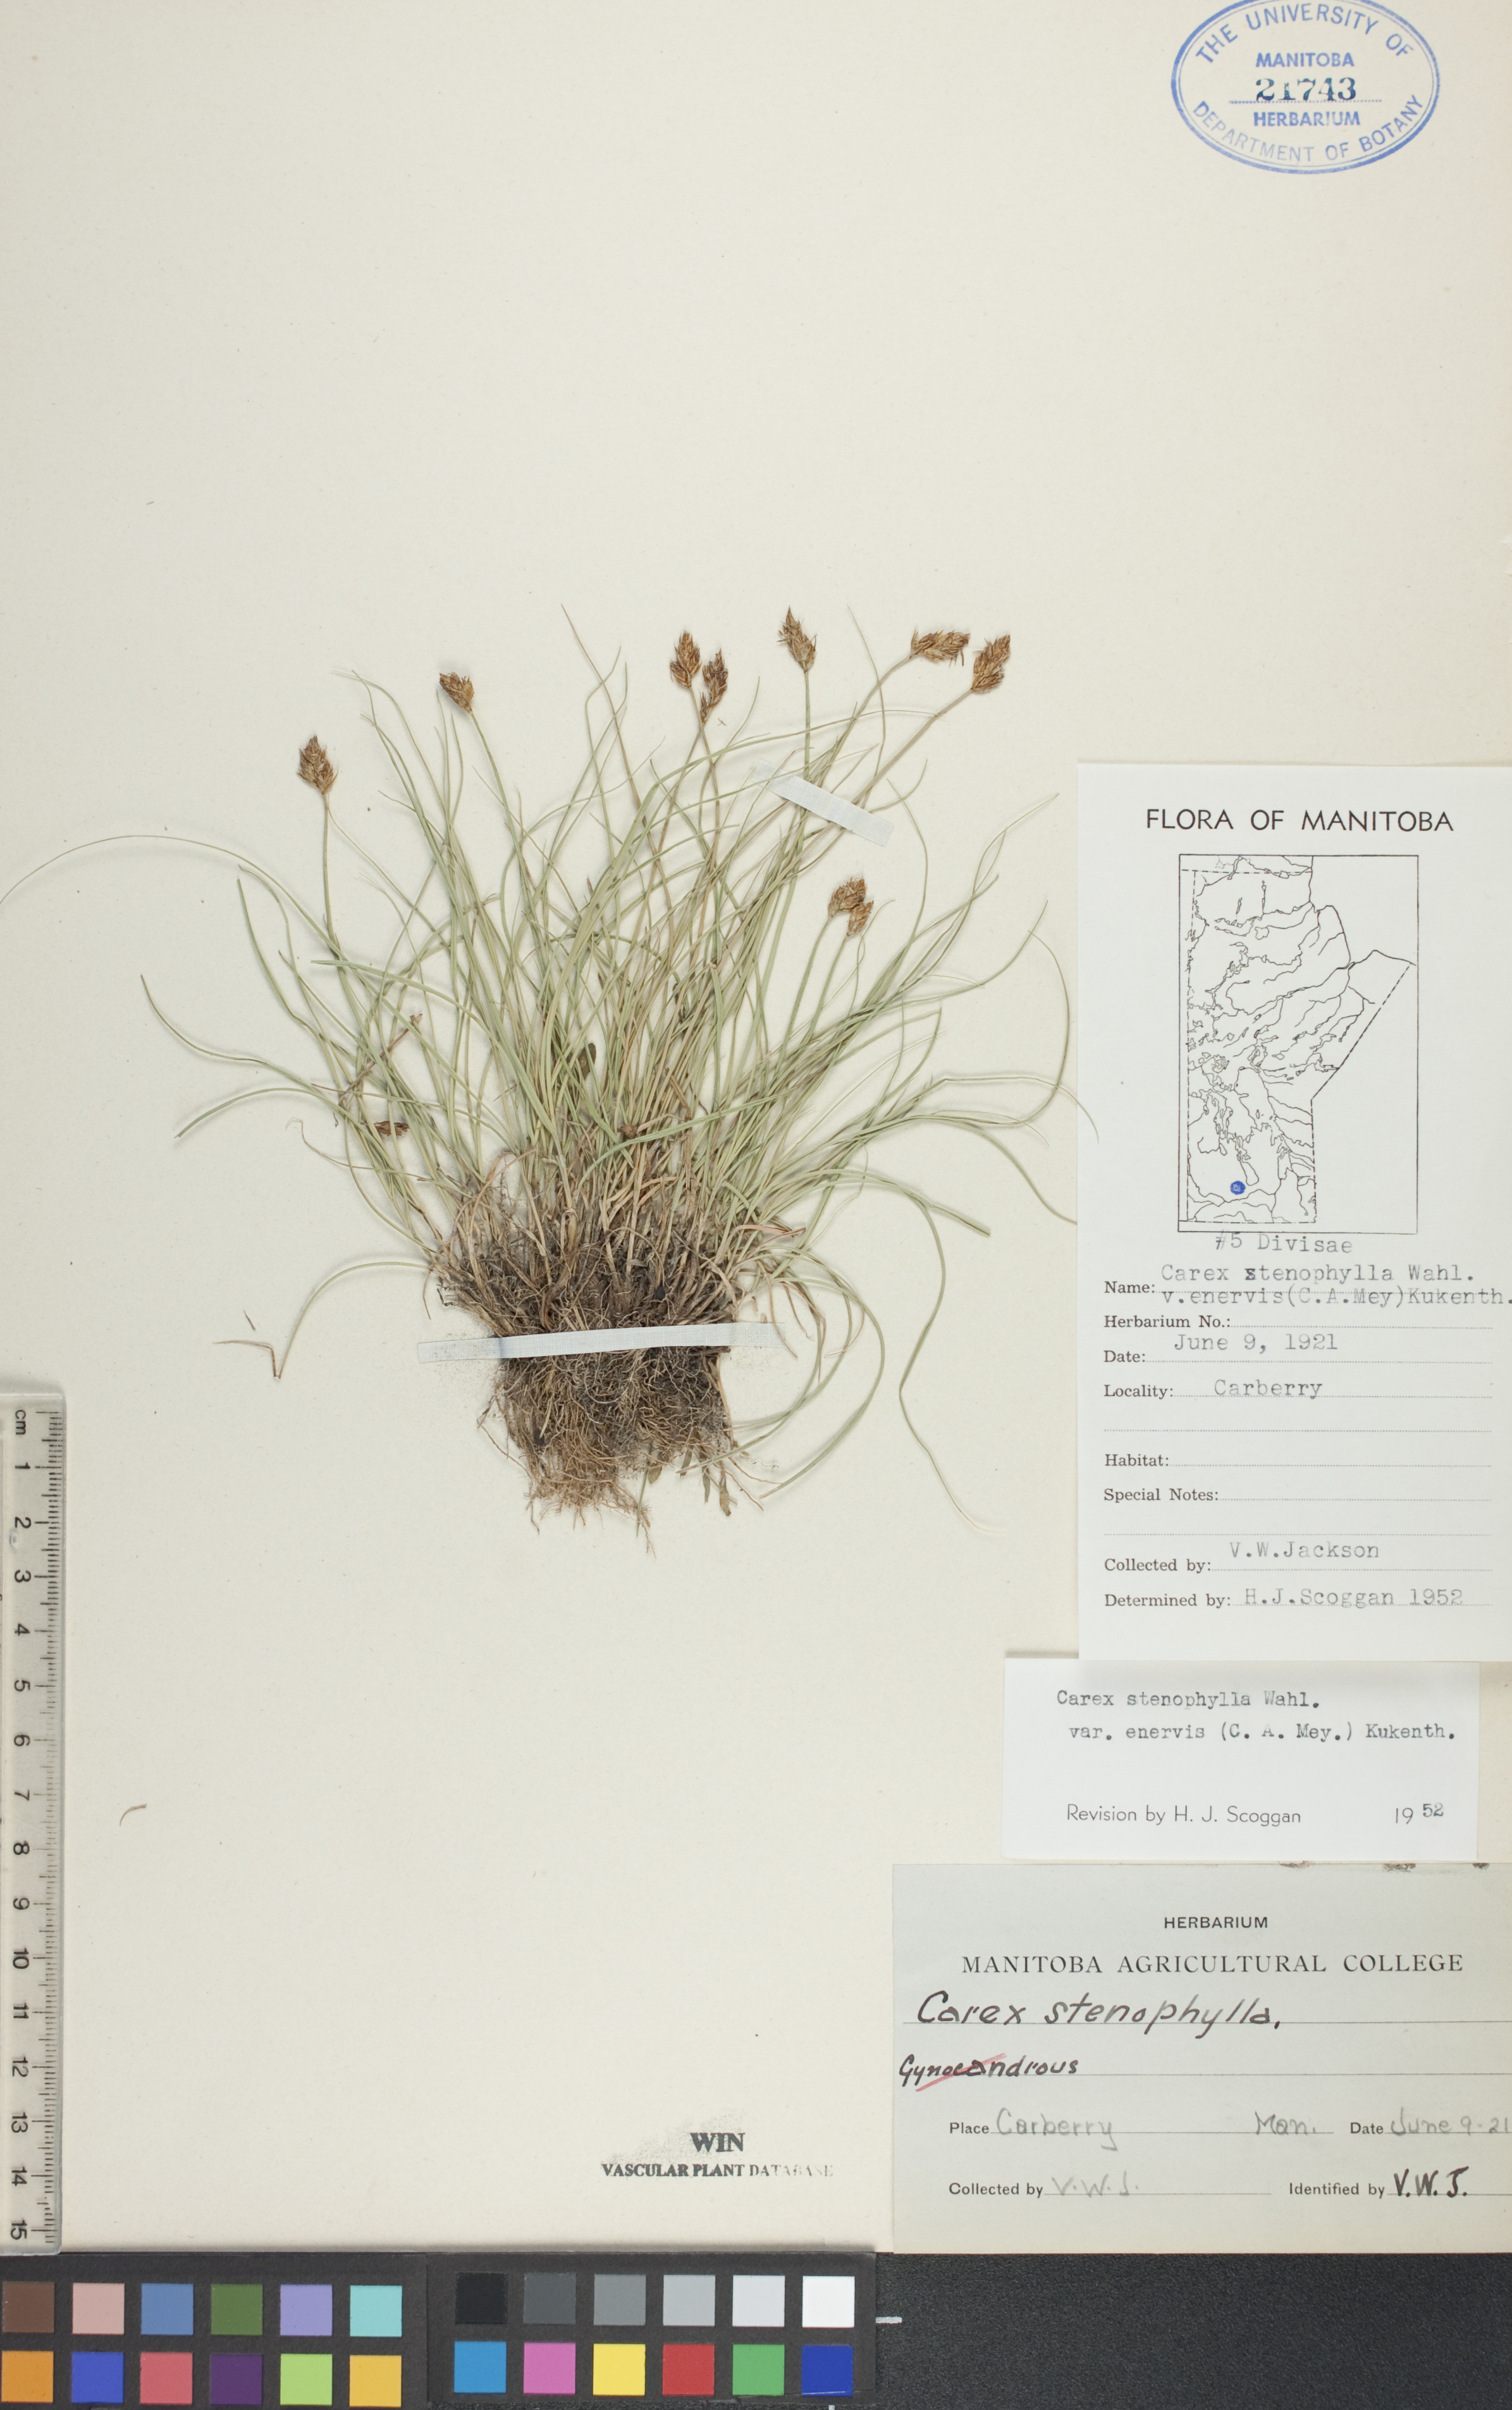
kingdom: Plantae
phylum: Tracheophyta
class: Liliopsida
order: Poales
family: Cyperaceae
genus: Carex
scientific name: Carex enervis
